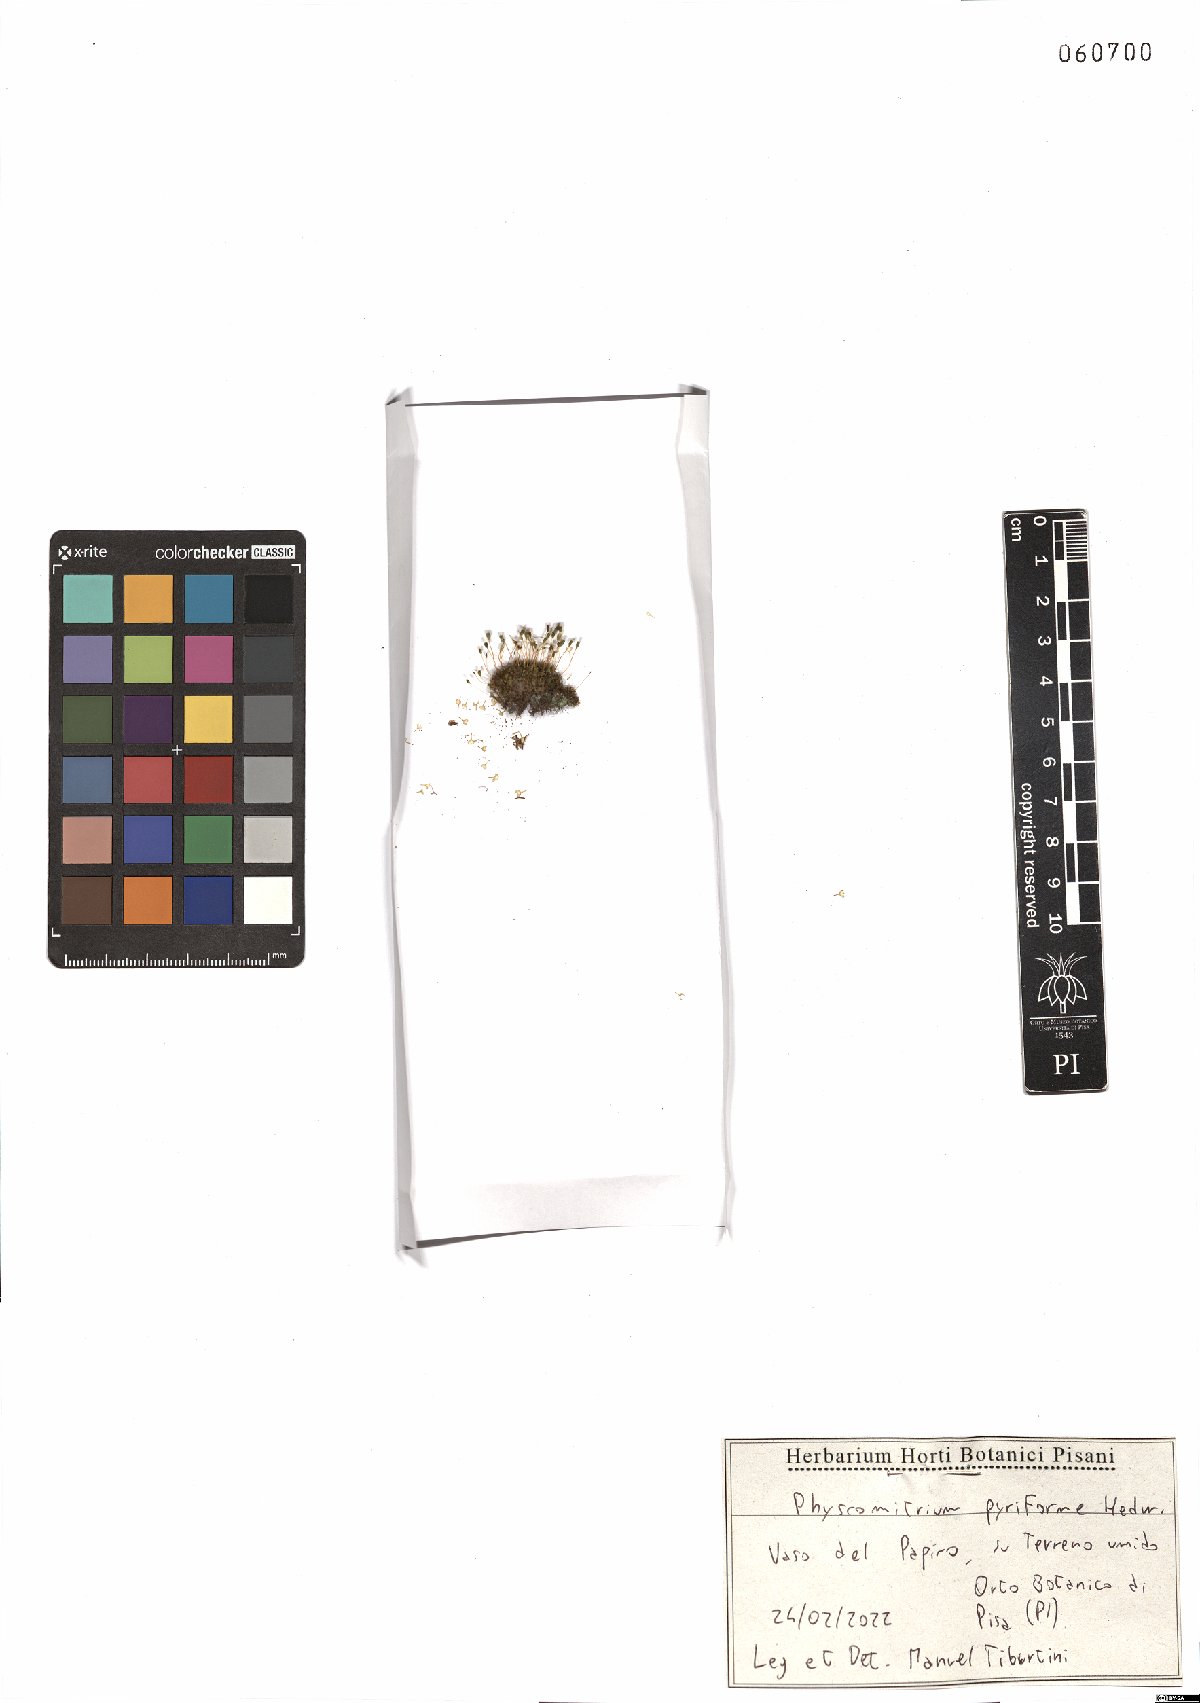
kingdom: Plantae
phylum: Bryophyta
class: Bryopsida
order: Funariales
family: Funariaceae
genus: Physcomitrium
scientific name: Physcomitrium pyriforme
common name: Common bladder-moss
